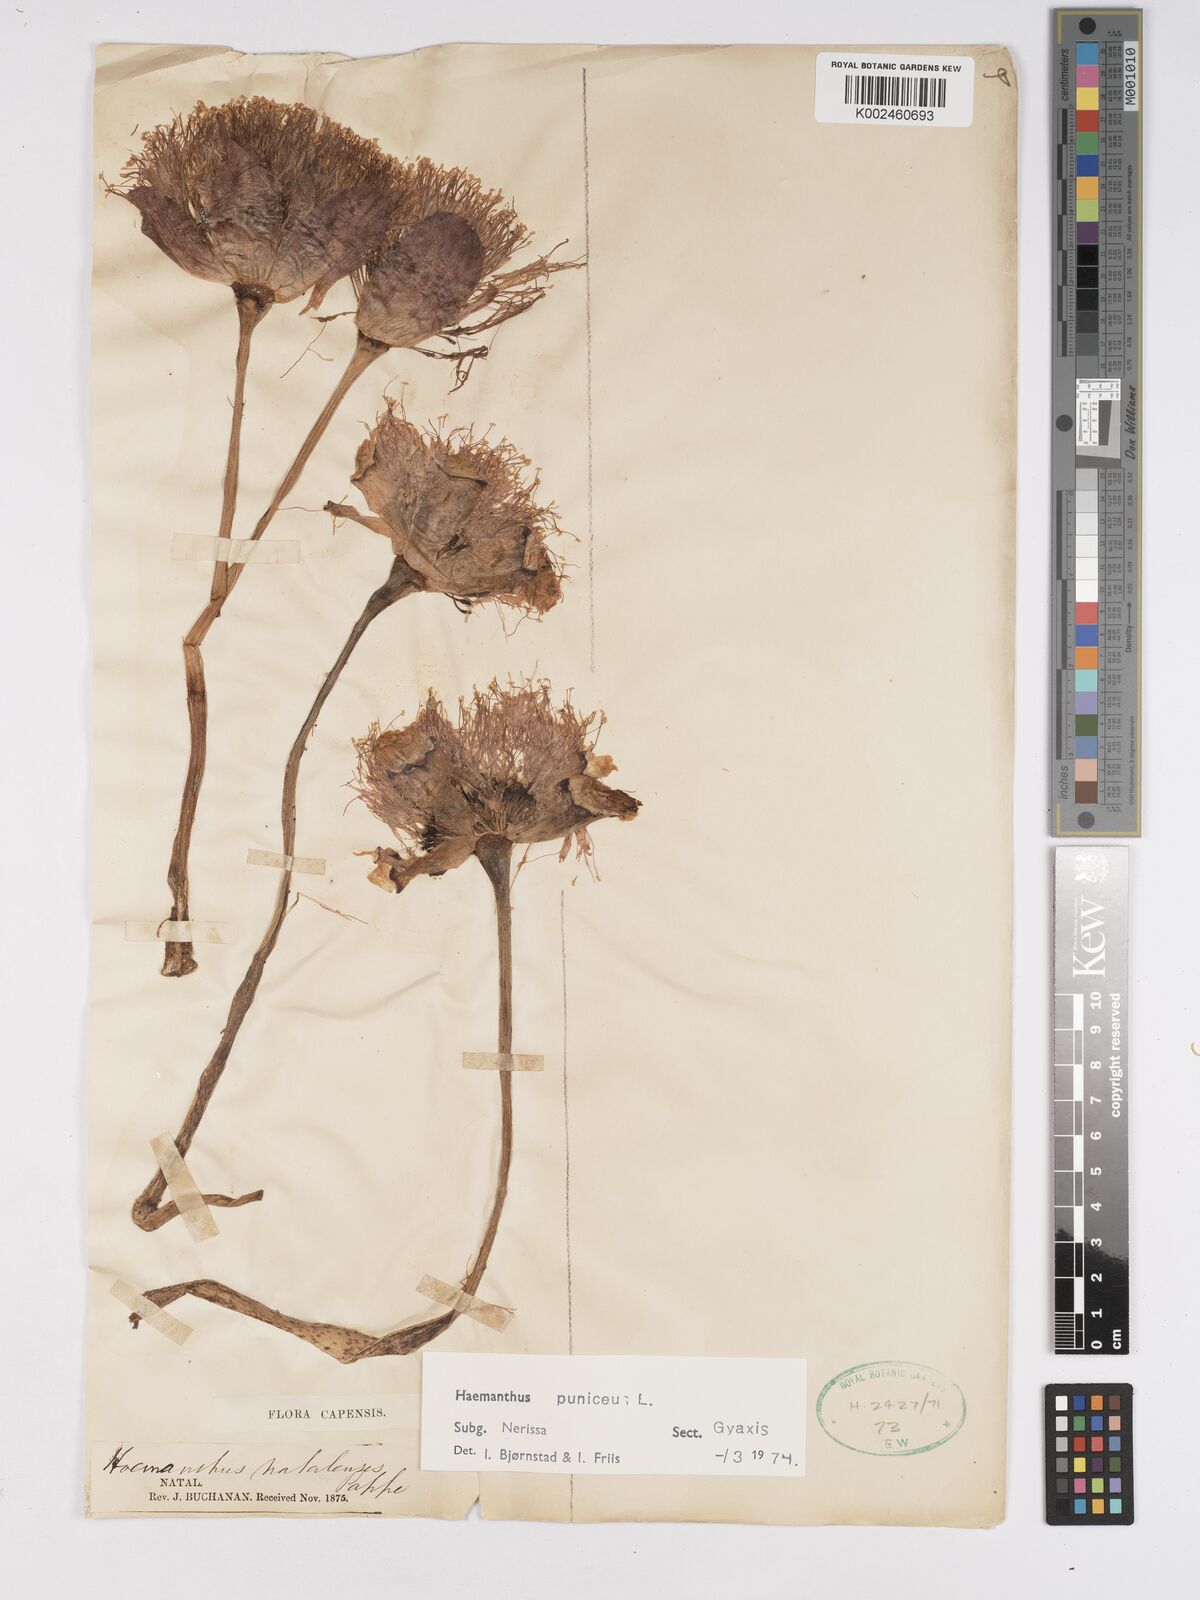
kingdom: Plantae
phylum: Tracheophyta
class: Liliopsida
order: Asparagales
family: Amaryllidaceae
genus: Scadoxus
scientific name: Scadoxus puniceus
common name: Royal-paintbrush
